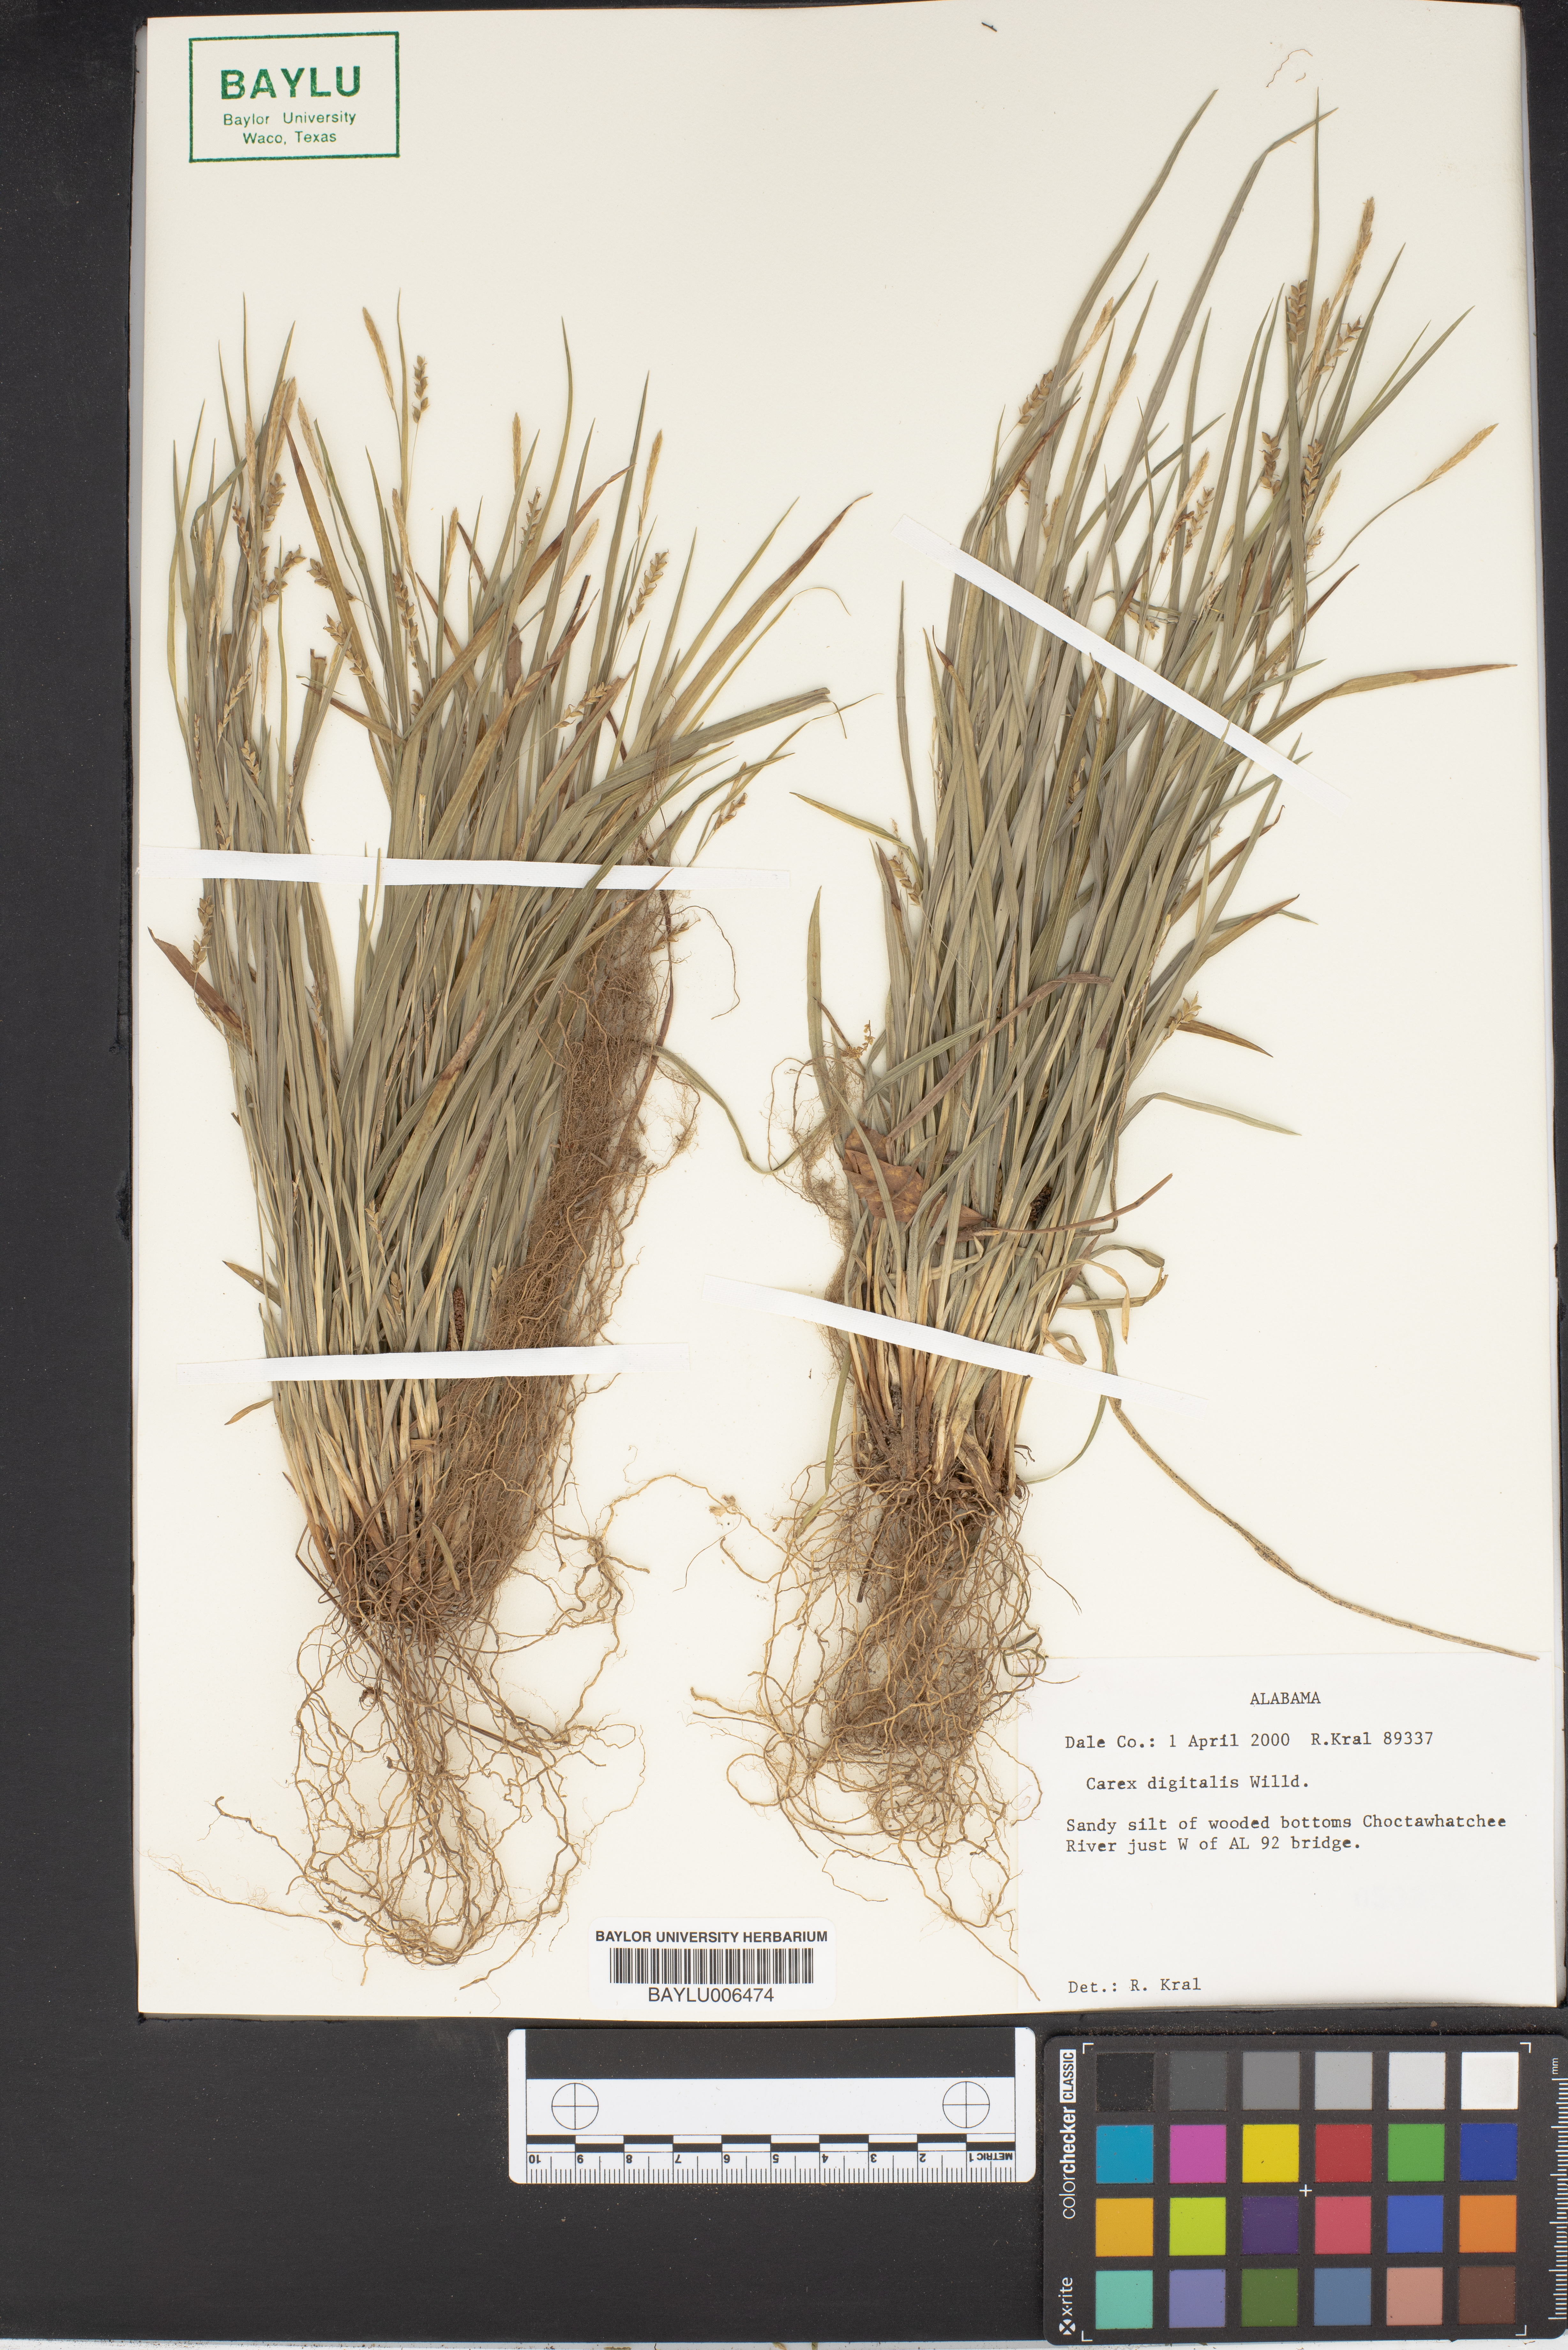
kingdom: Plantae
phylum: Tracheophyta
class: Liliopsida
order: Poales
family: Cyperaceae
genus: Carex
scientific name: Carex digitalis
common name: Slender wood sedge
